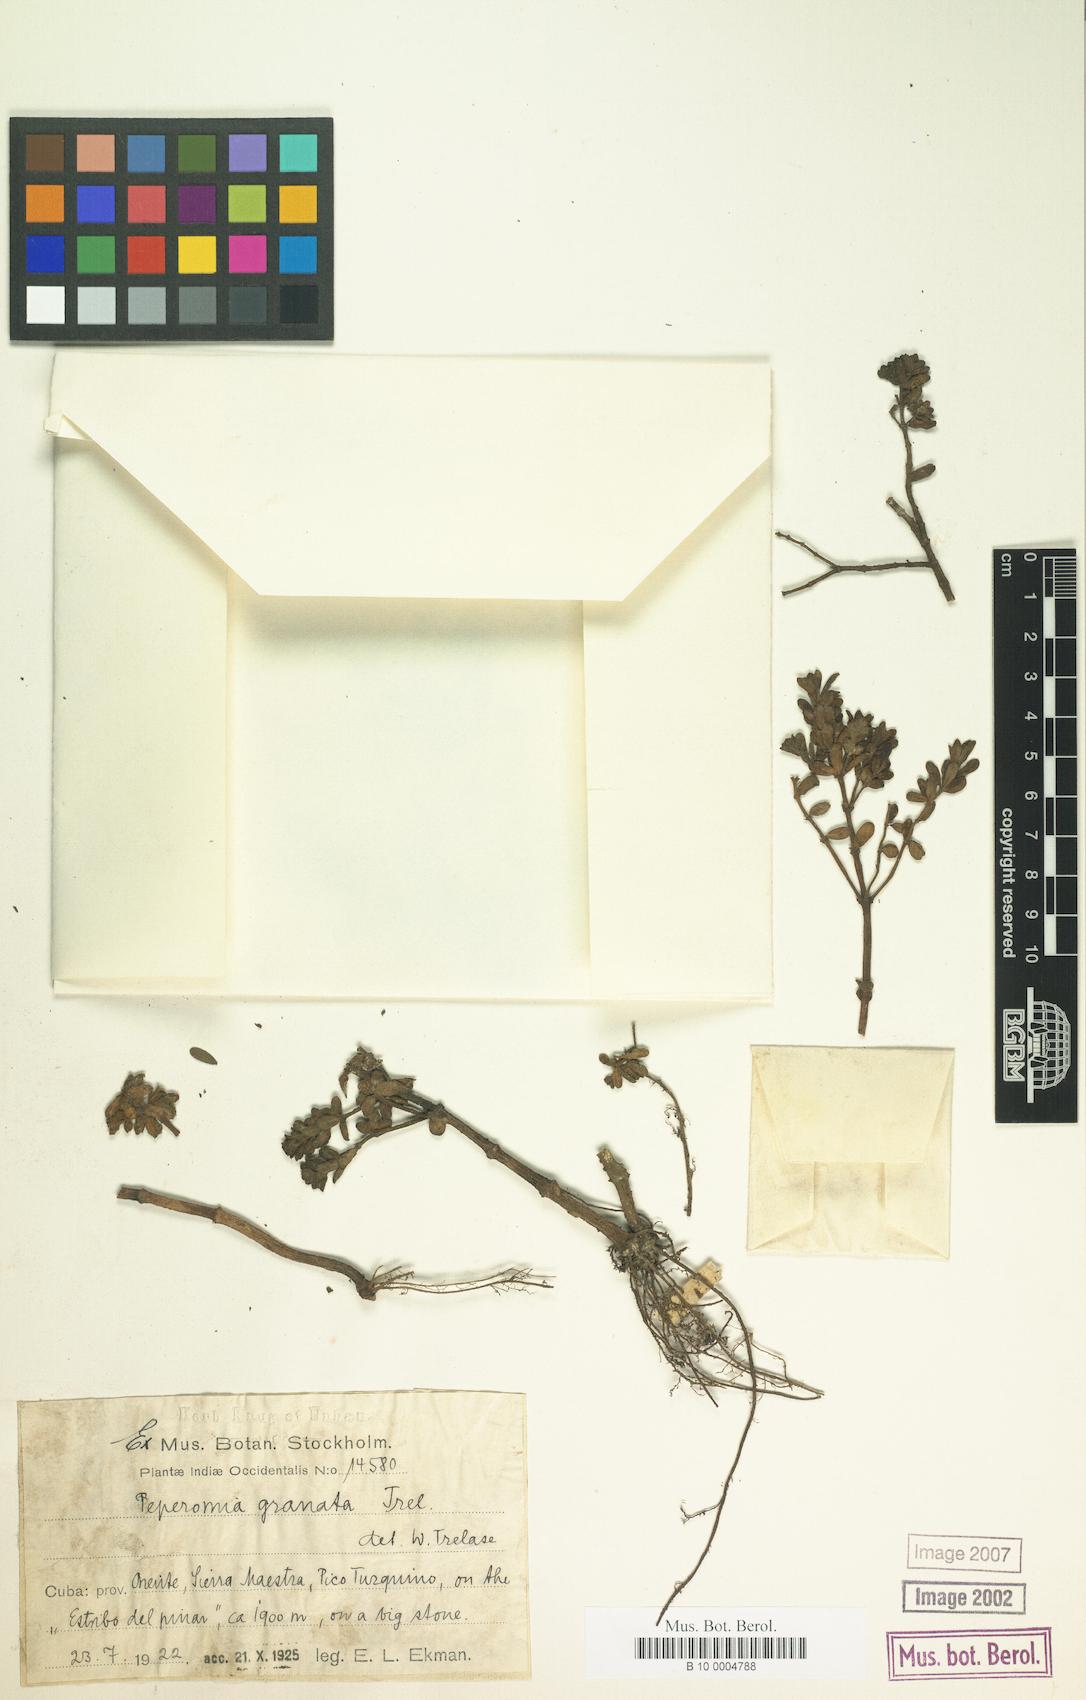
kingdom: Plantae
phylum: Tracheophyta
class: Magnoliopsida
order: Piperales
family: Piperaceae
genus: Peperomia
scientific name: Peperomia galioides
